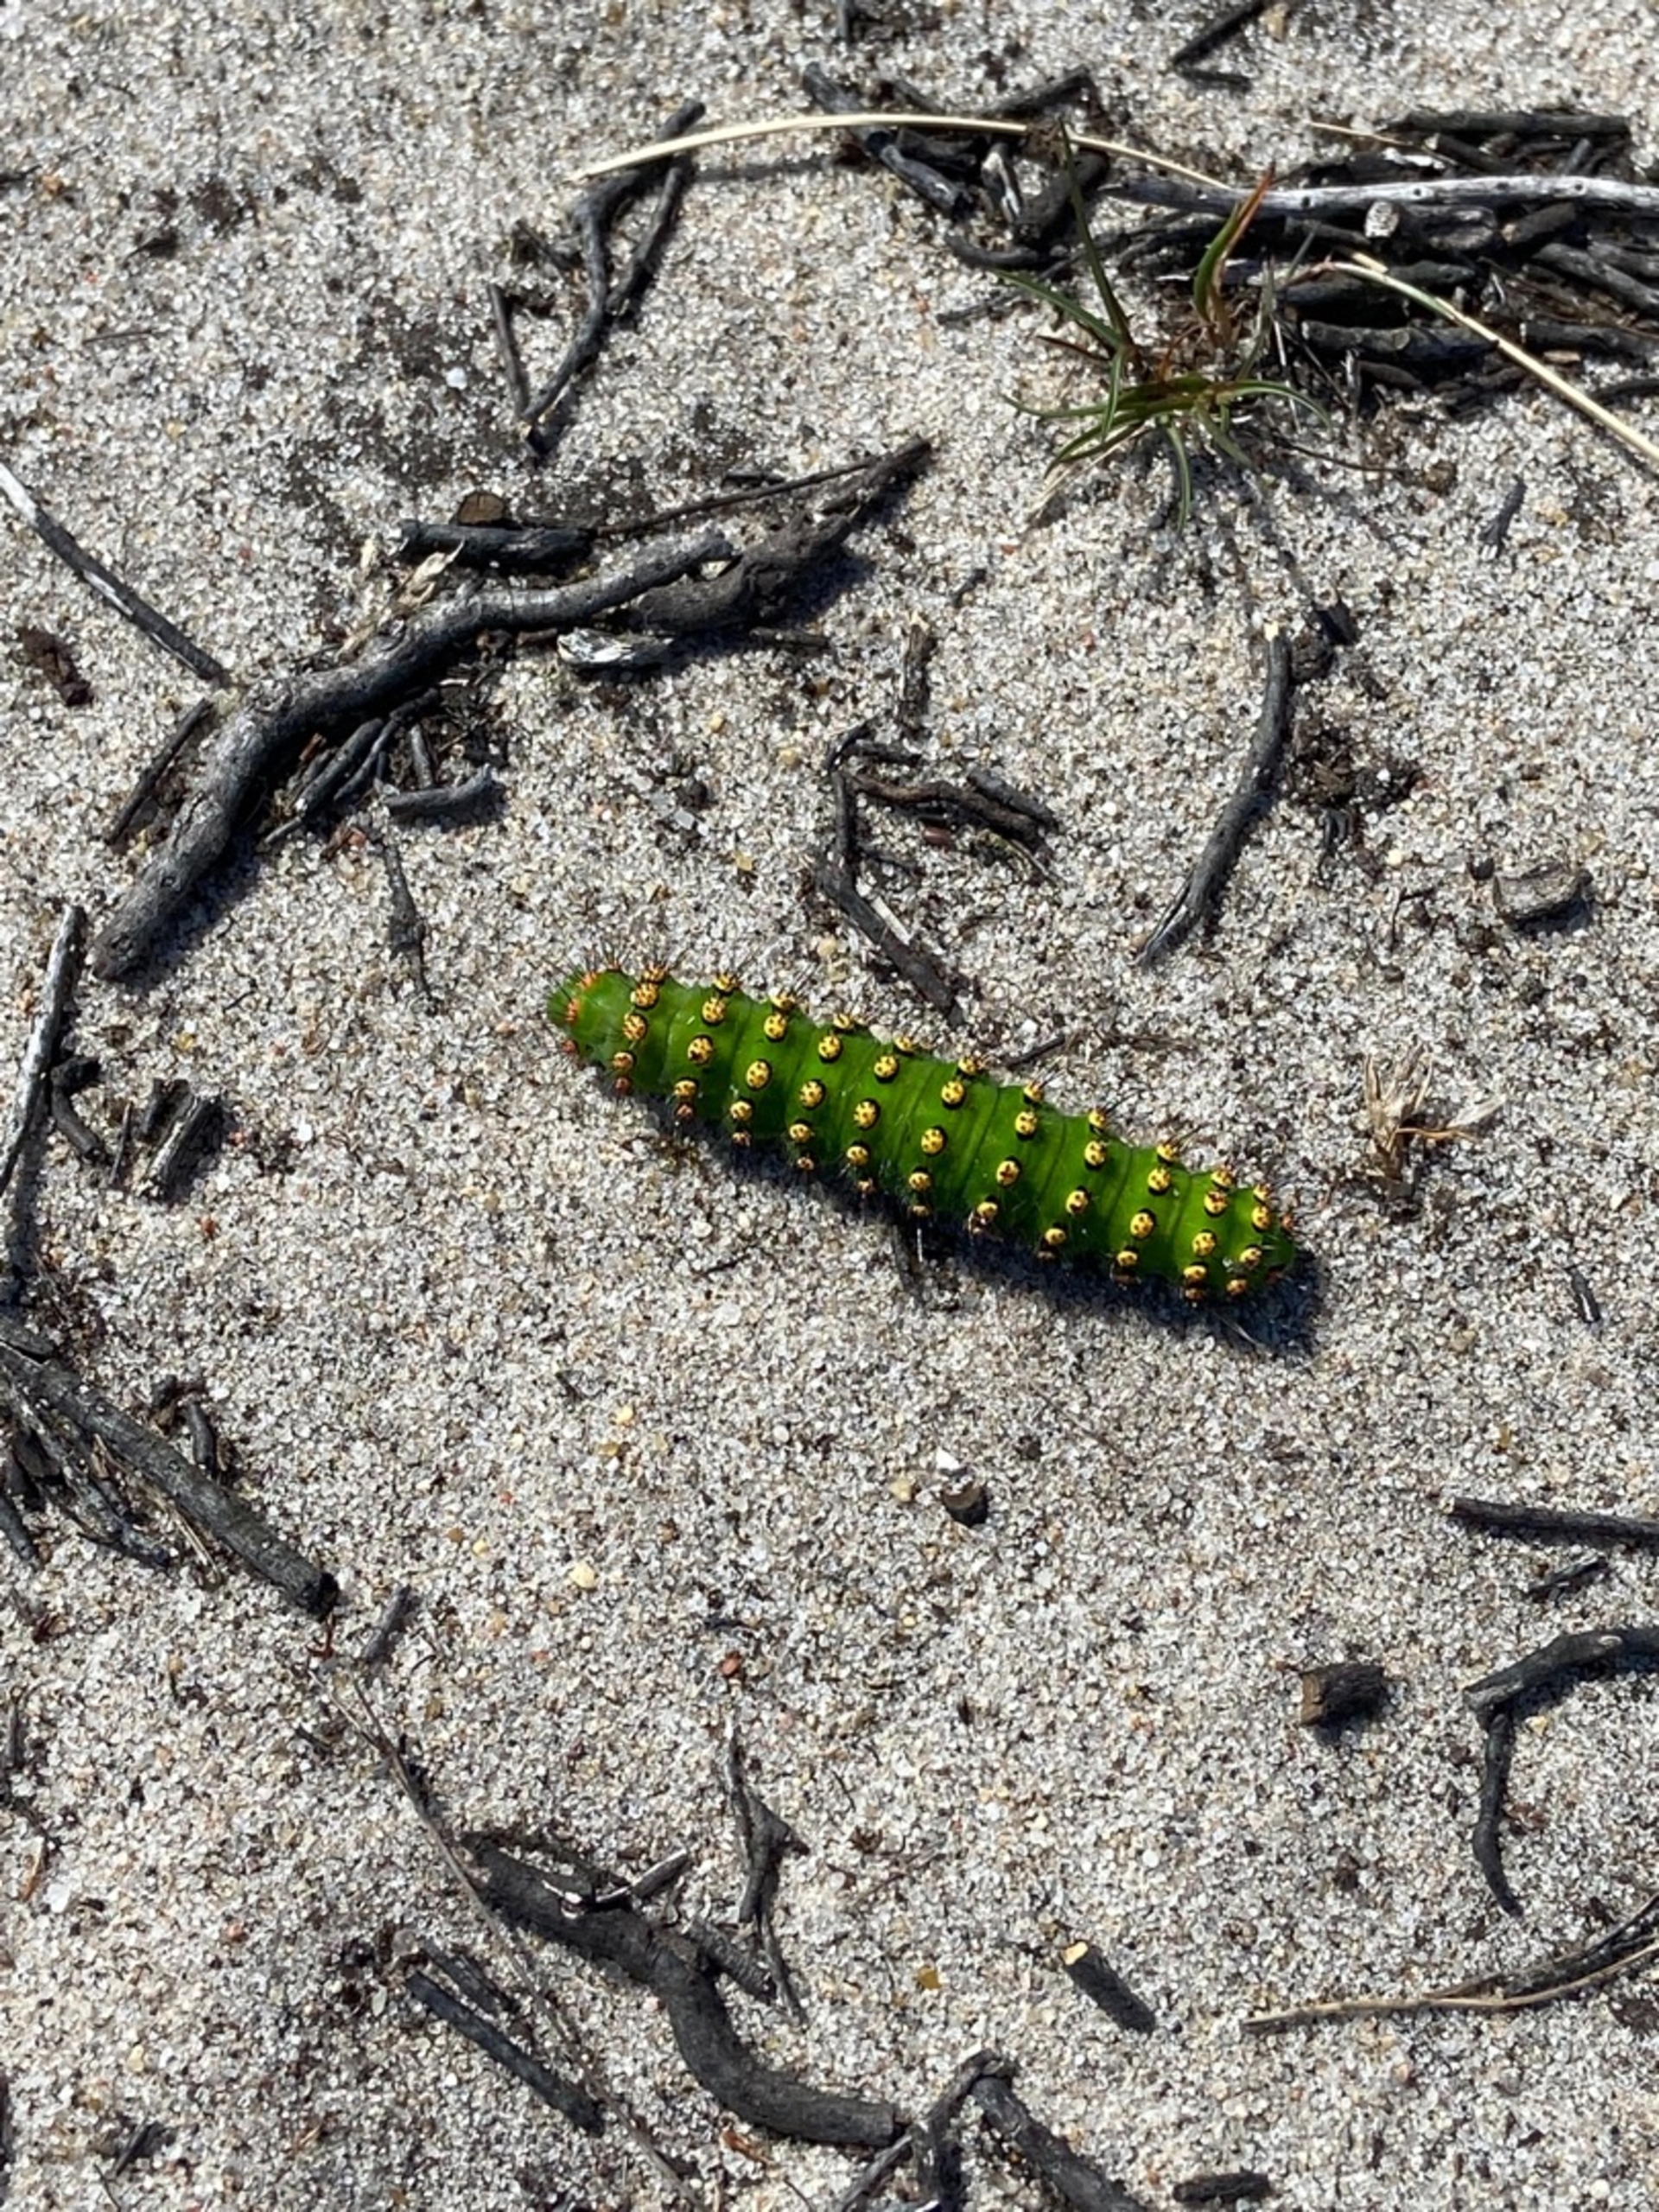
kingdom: Animalia
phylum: Arthropoda
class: Insecta
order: Lepidoptera
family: Saturniidae
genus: Saturnia
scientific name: Saturnia pavonia
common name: Lille natpåfugleøje
